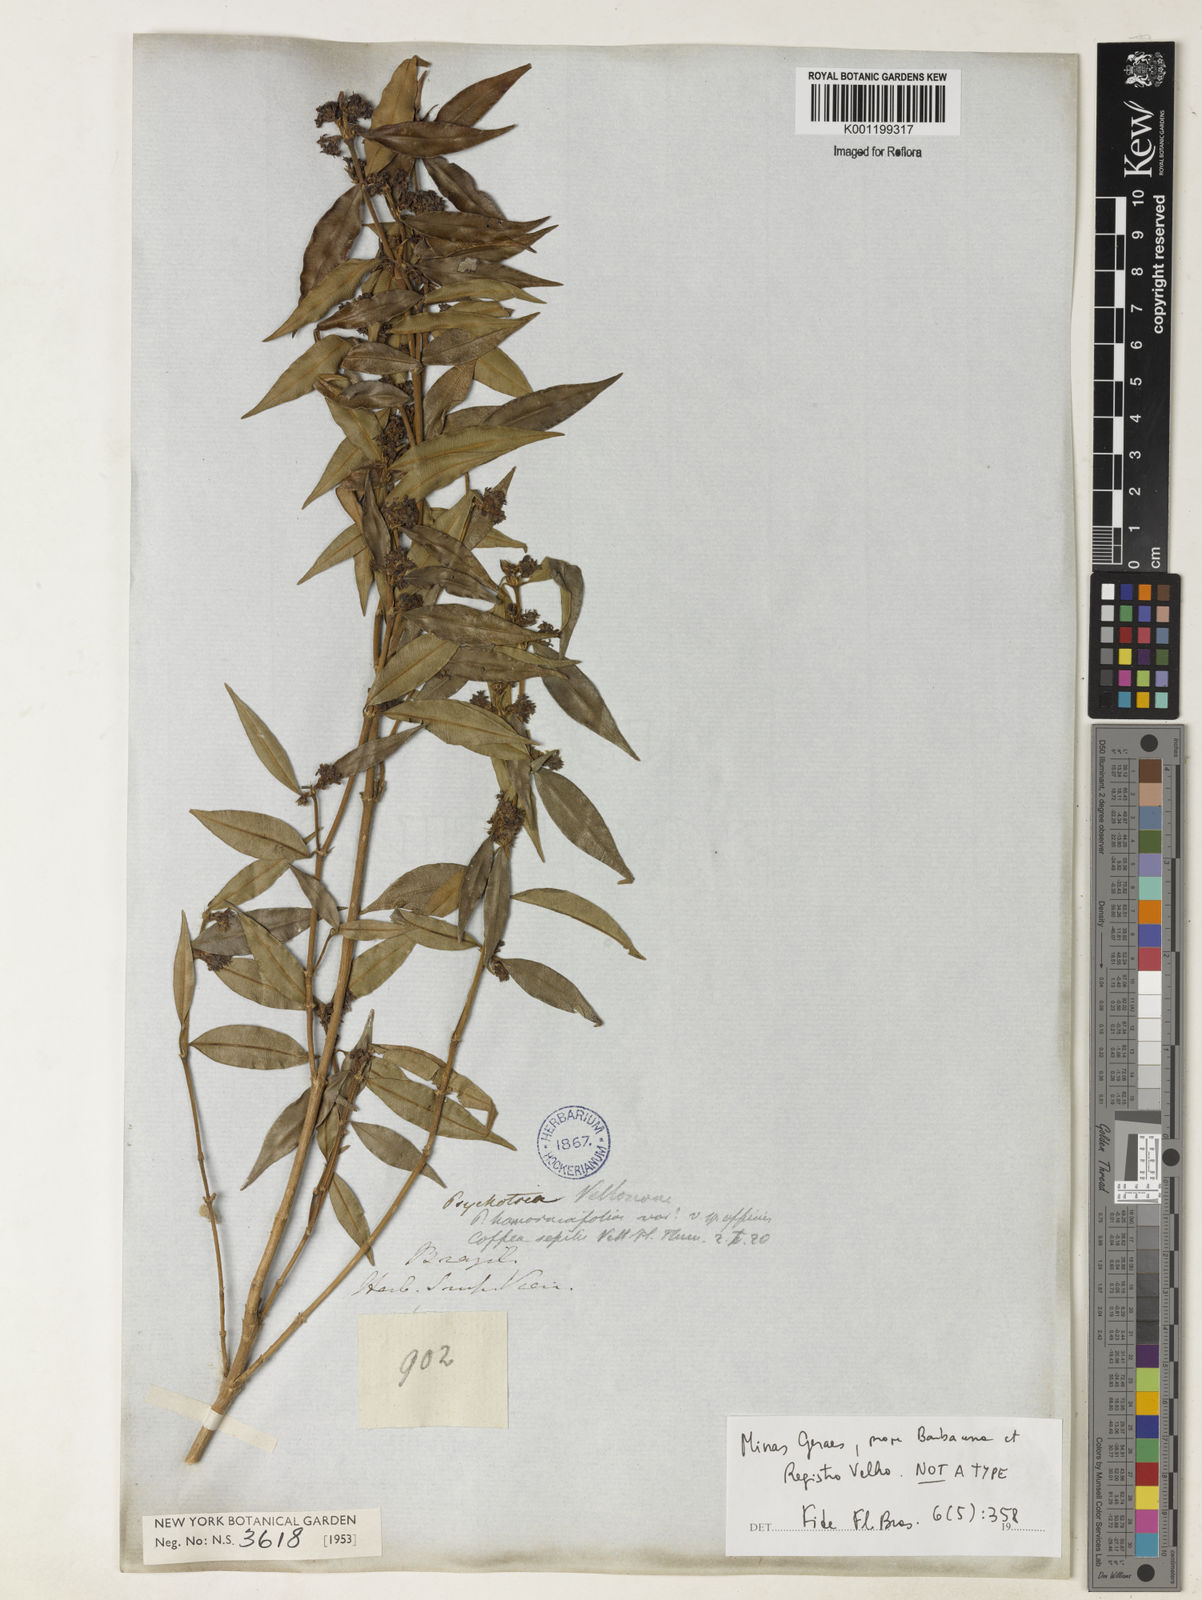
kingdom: Plantae
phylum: Tracheophyta
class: Magnoliopsida
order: Gentianales
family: Rubiaceae
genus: Rudgea
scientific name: Rudgea sessilis
